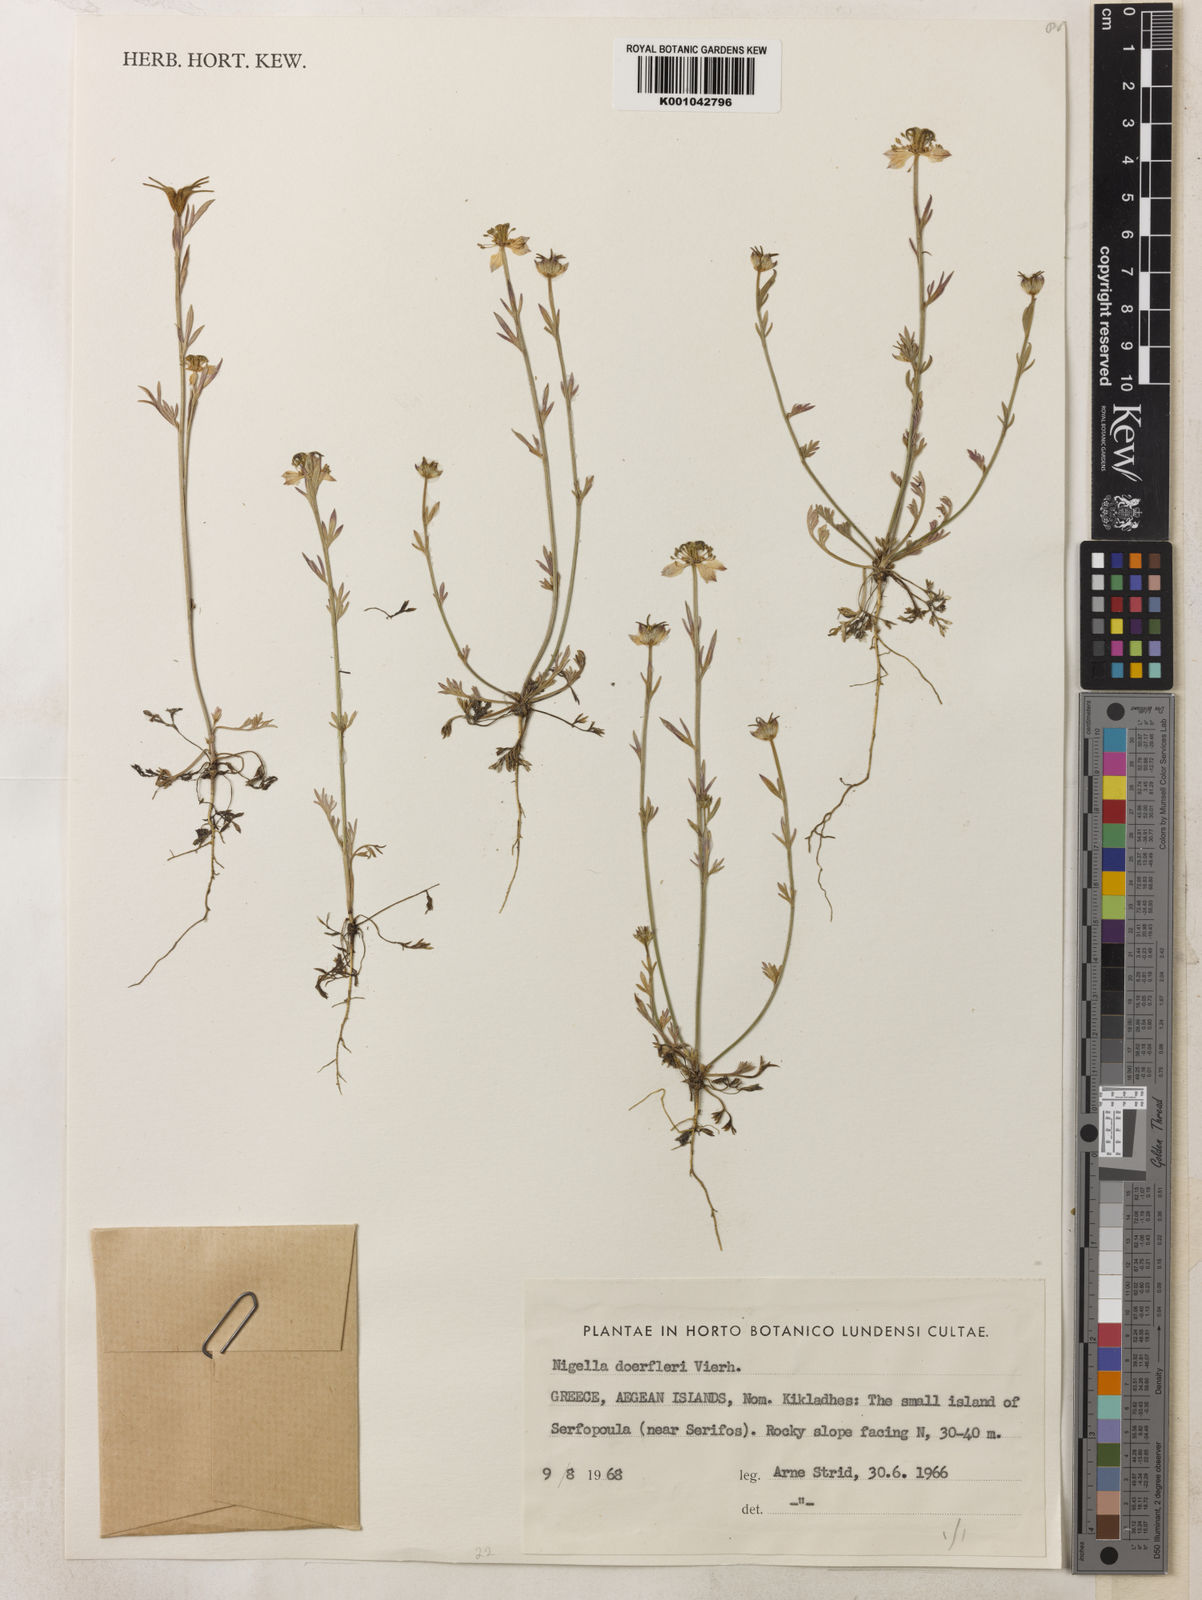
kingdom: Plantae
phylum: Tracheophyta
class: Magnoliopsida
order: Ranunculales
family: Ranunculaceae
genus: Nigella
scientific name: Nigella doerfleri
